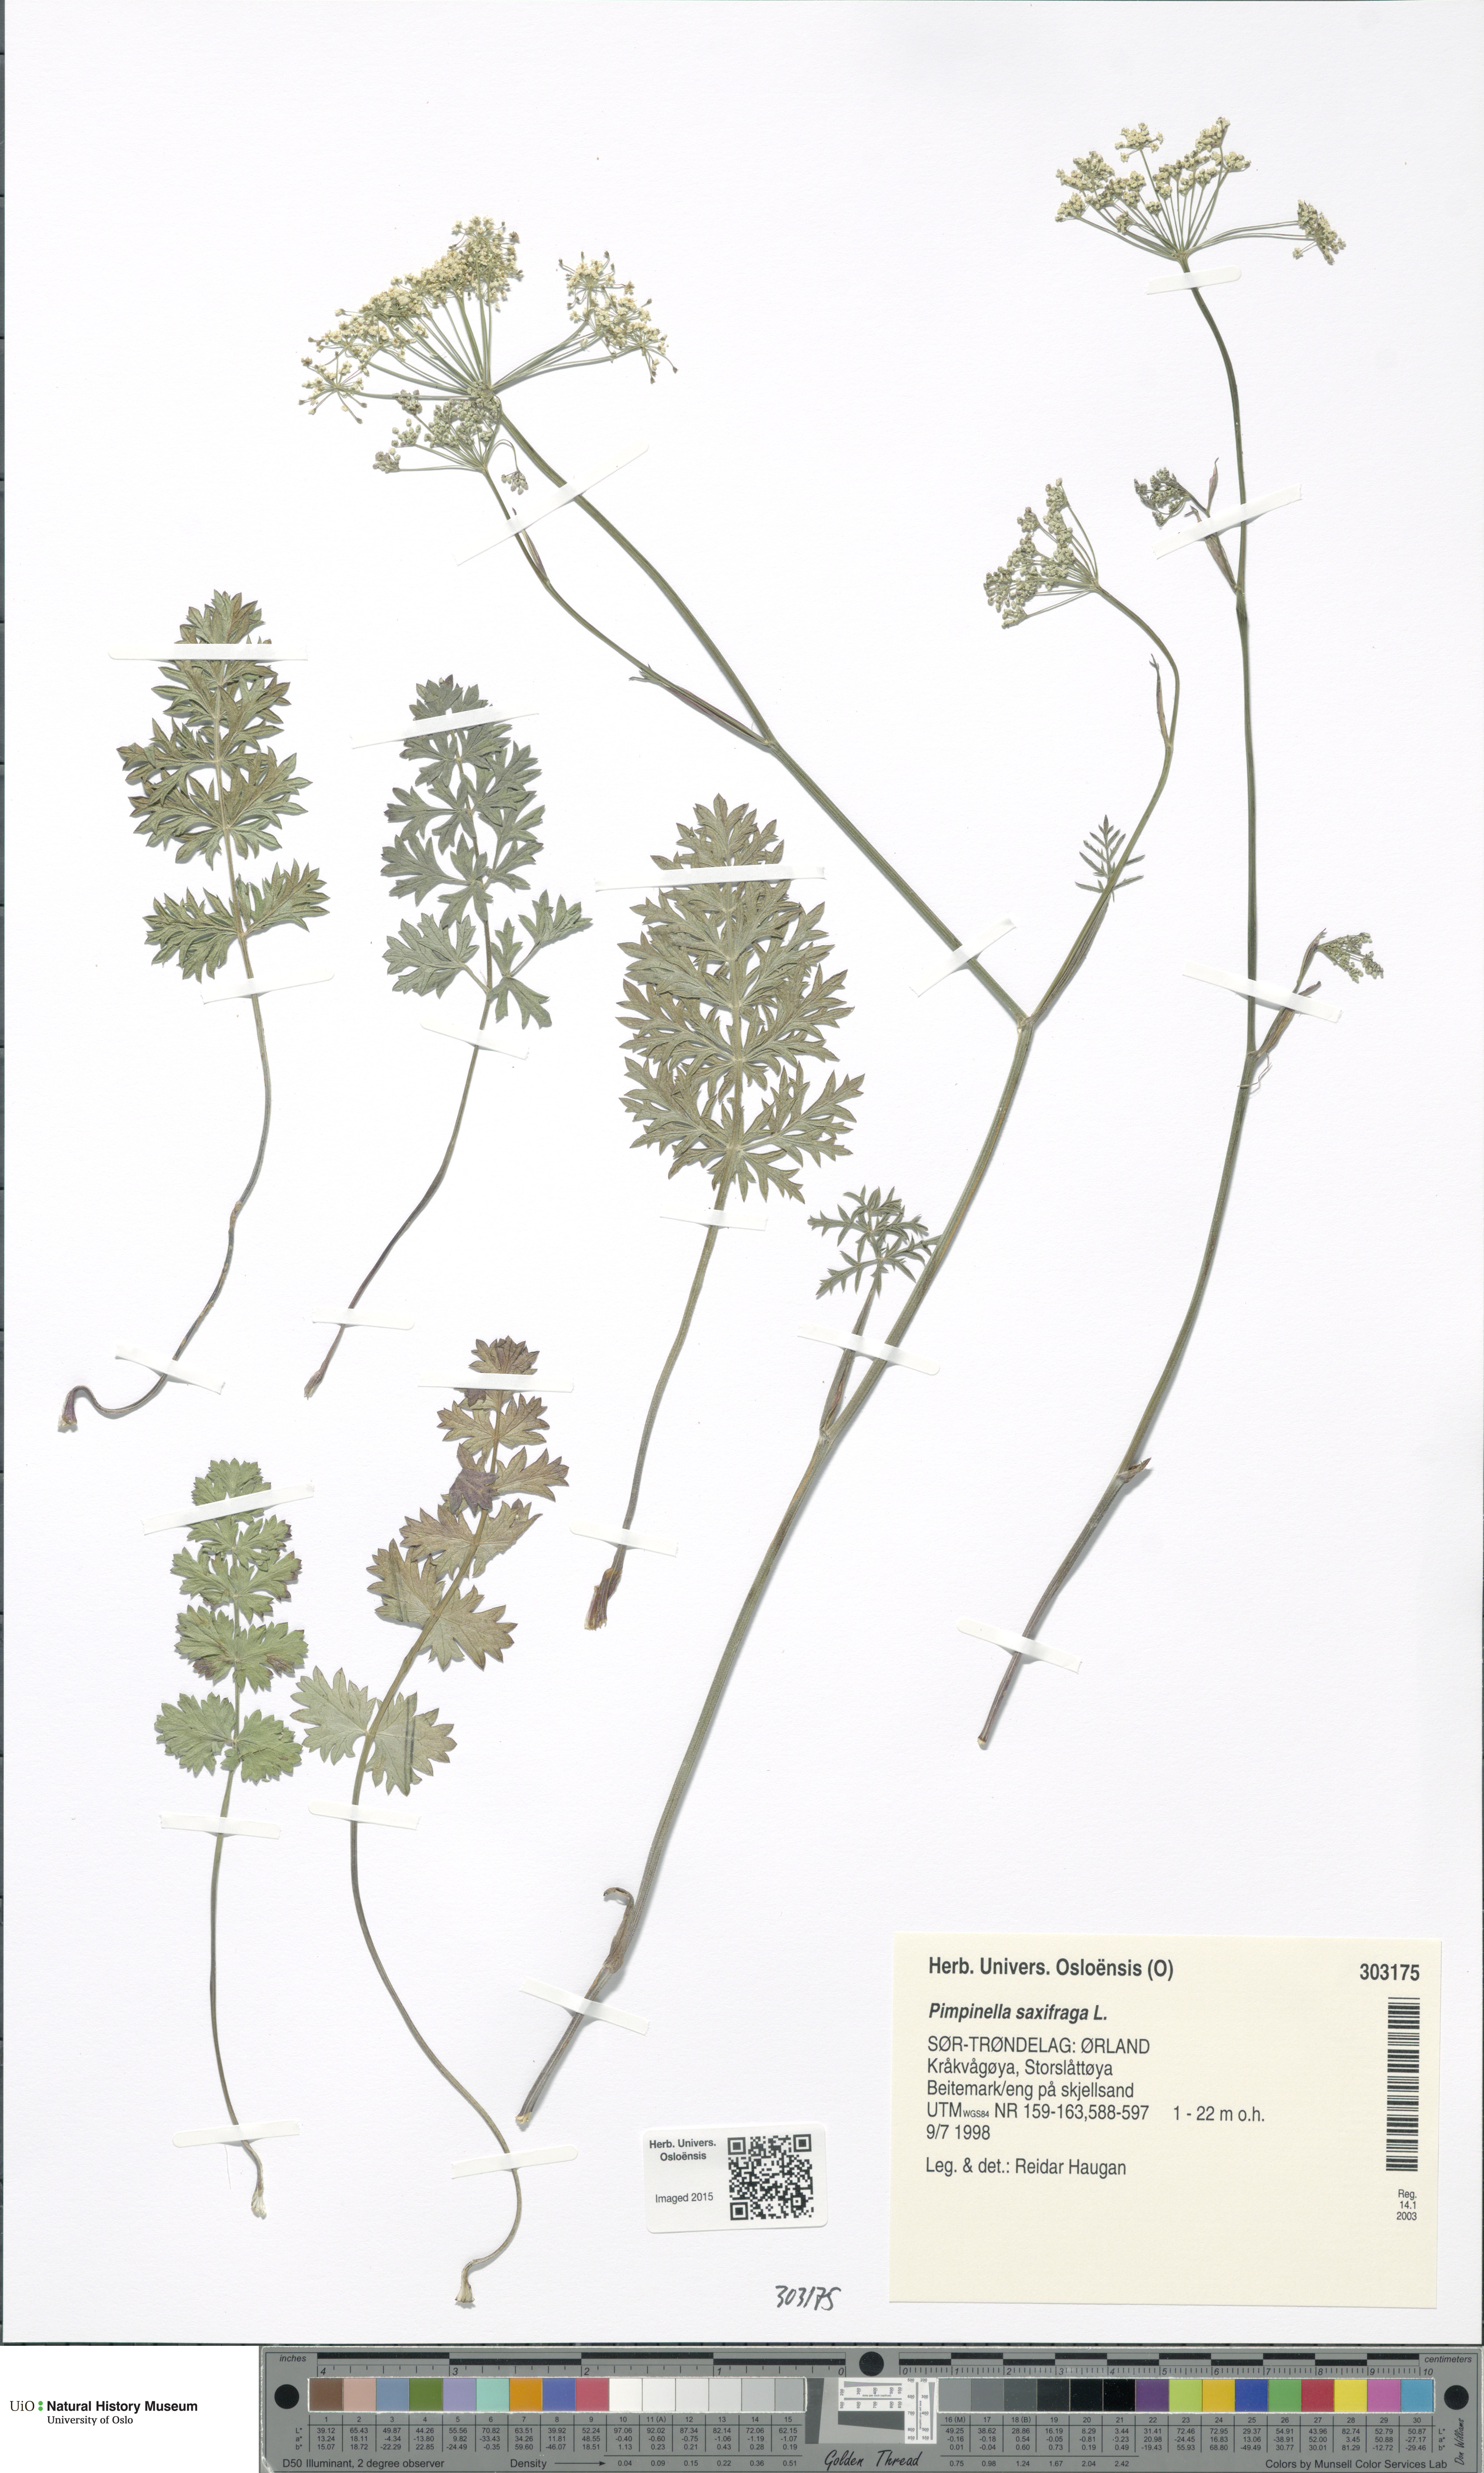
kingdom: Plantae
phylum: Tracheophyta
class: Magnoliopsida
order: Apiales
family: Apiaceae
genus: Pimpinella
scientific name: Pimpinella saxifraga
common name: Burnet-saxifrage
